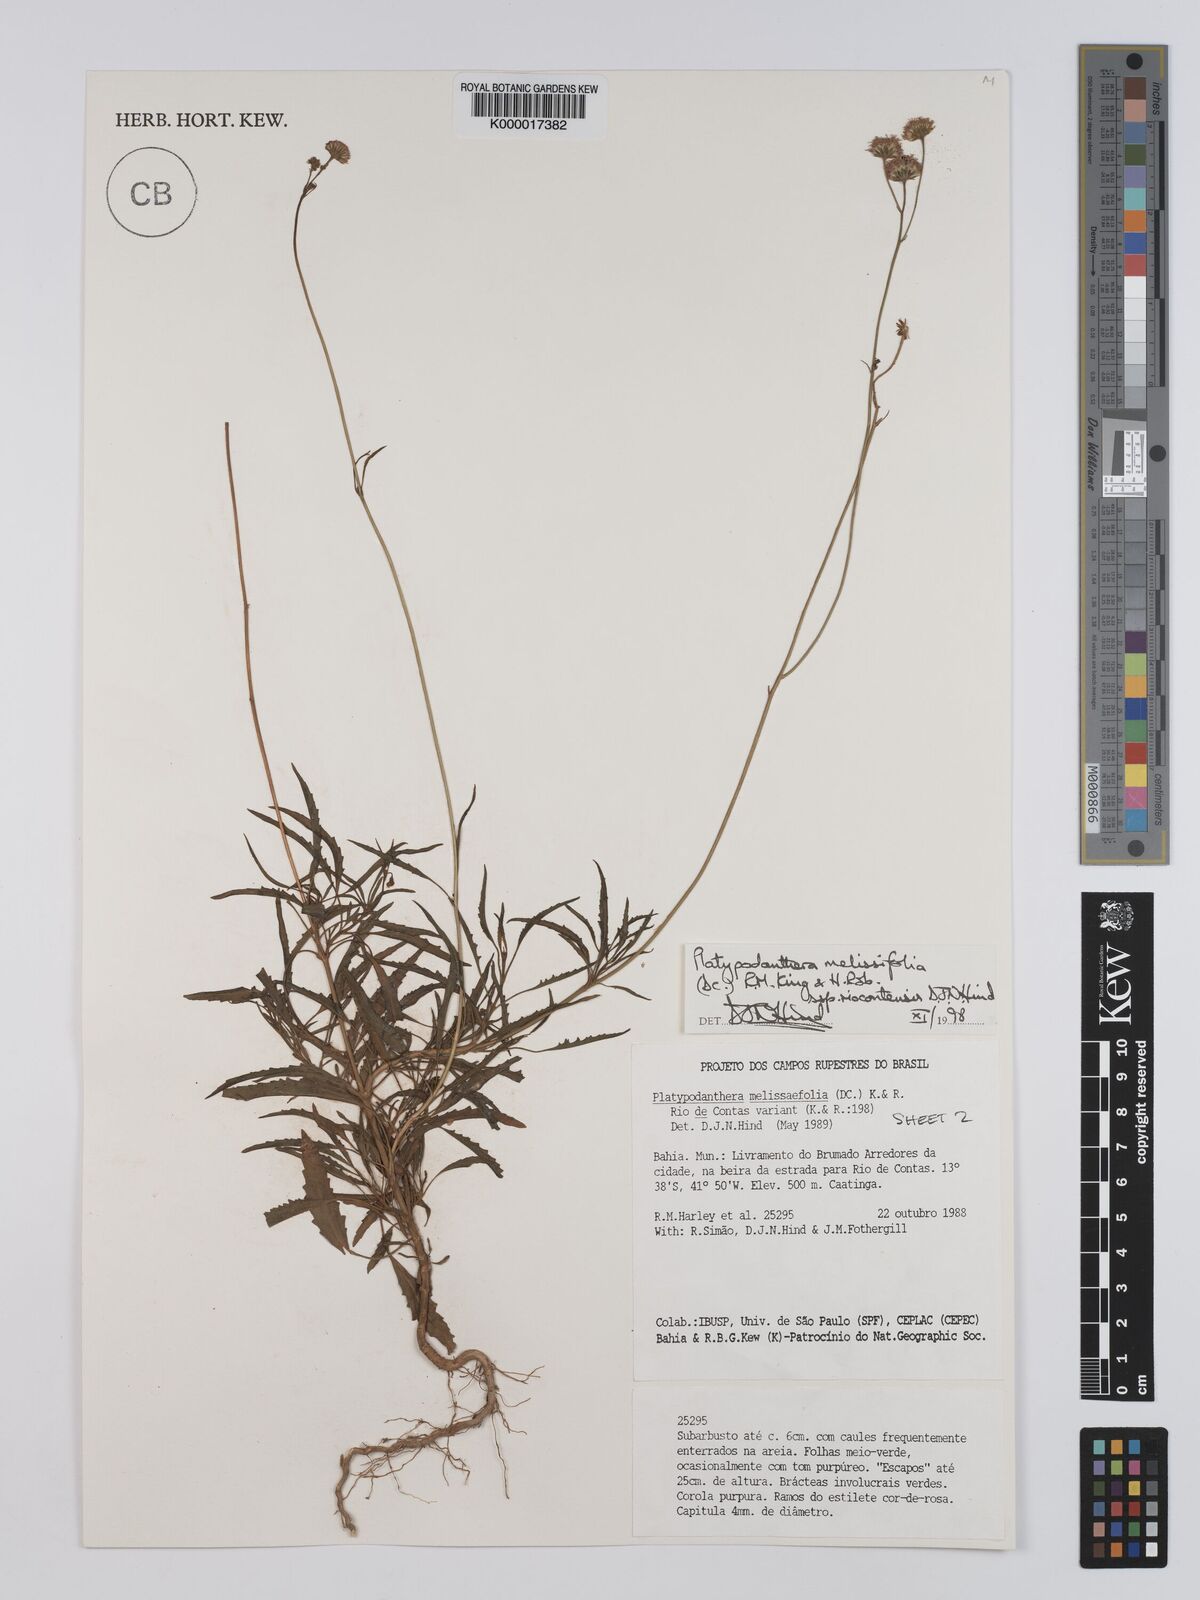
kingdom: Plantae
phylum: Tracheophyta
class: Magnoliopsida
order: Asterales
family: Asteraceae
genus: Platypodanthera
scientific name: Platypodanthera melissifolia
